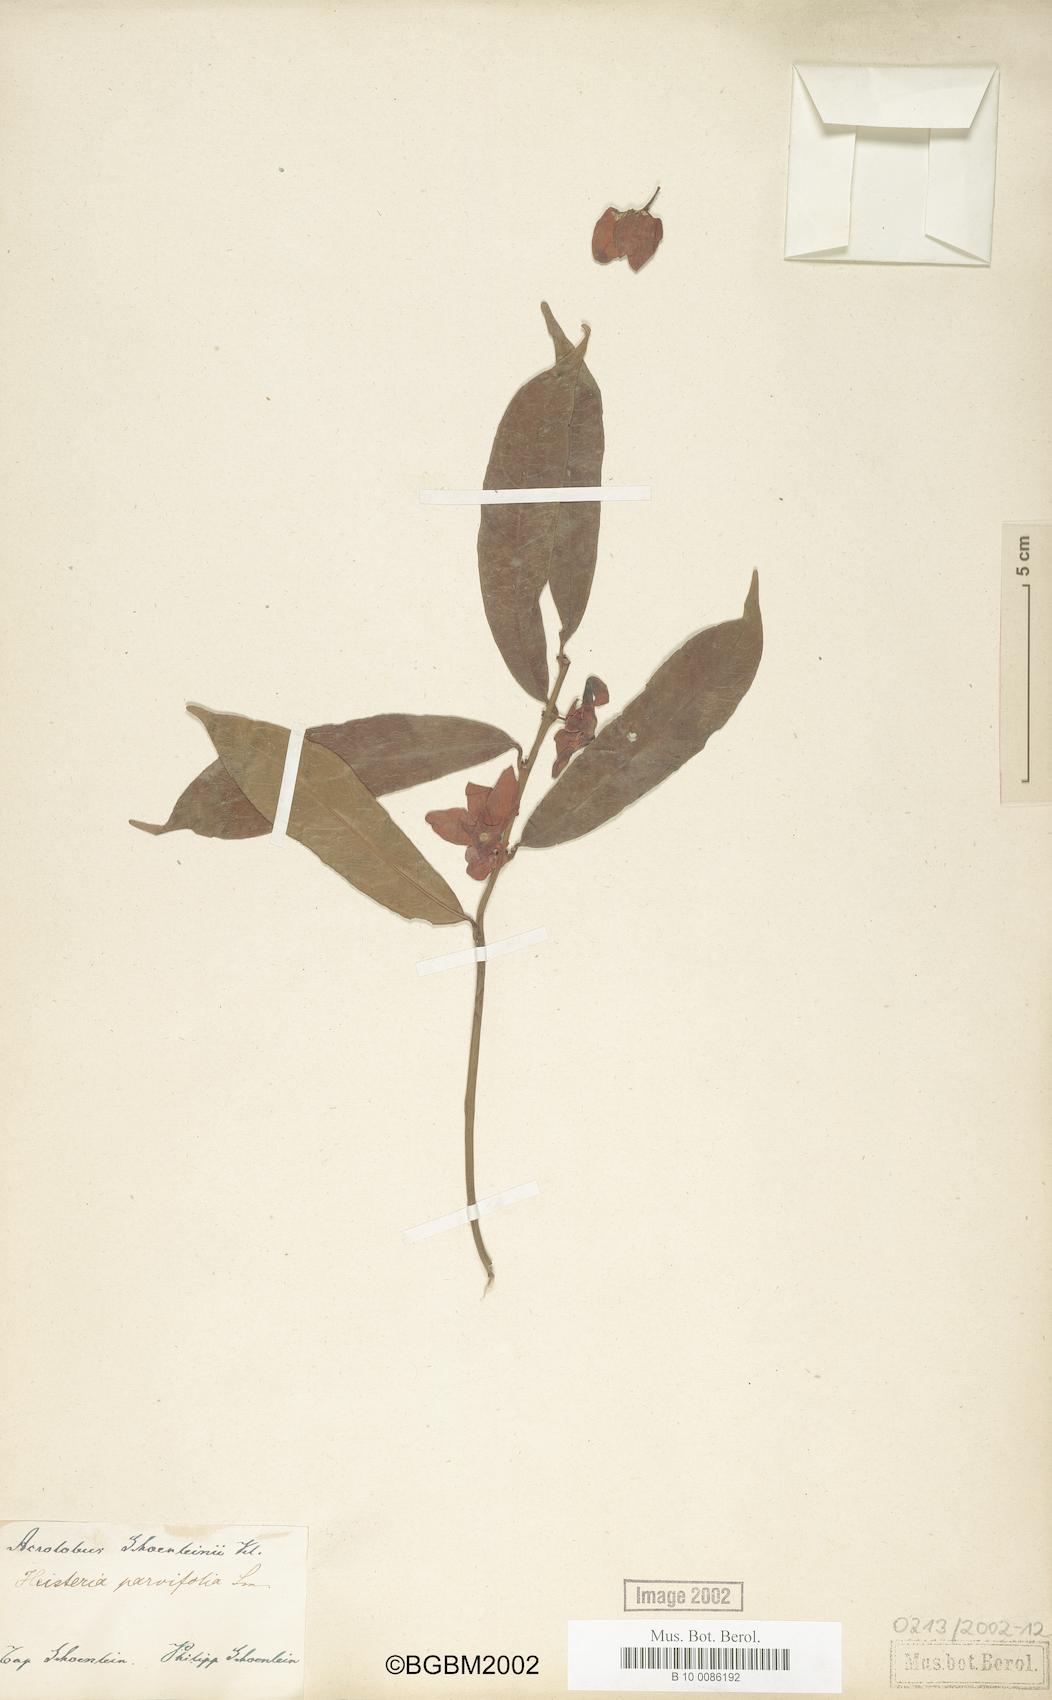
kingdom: Plantae
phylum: Tracheophyta
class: Magnoliopsida
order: Santalales
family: Erythropalaceae
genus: Heisteria
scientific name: Heisteria parvifolia
